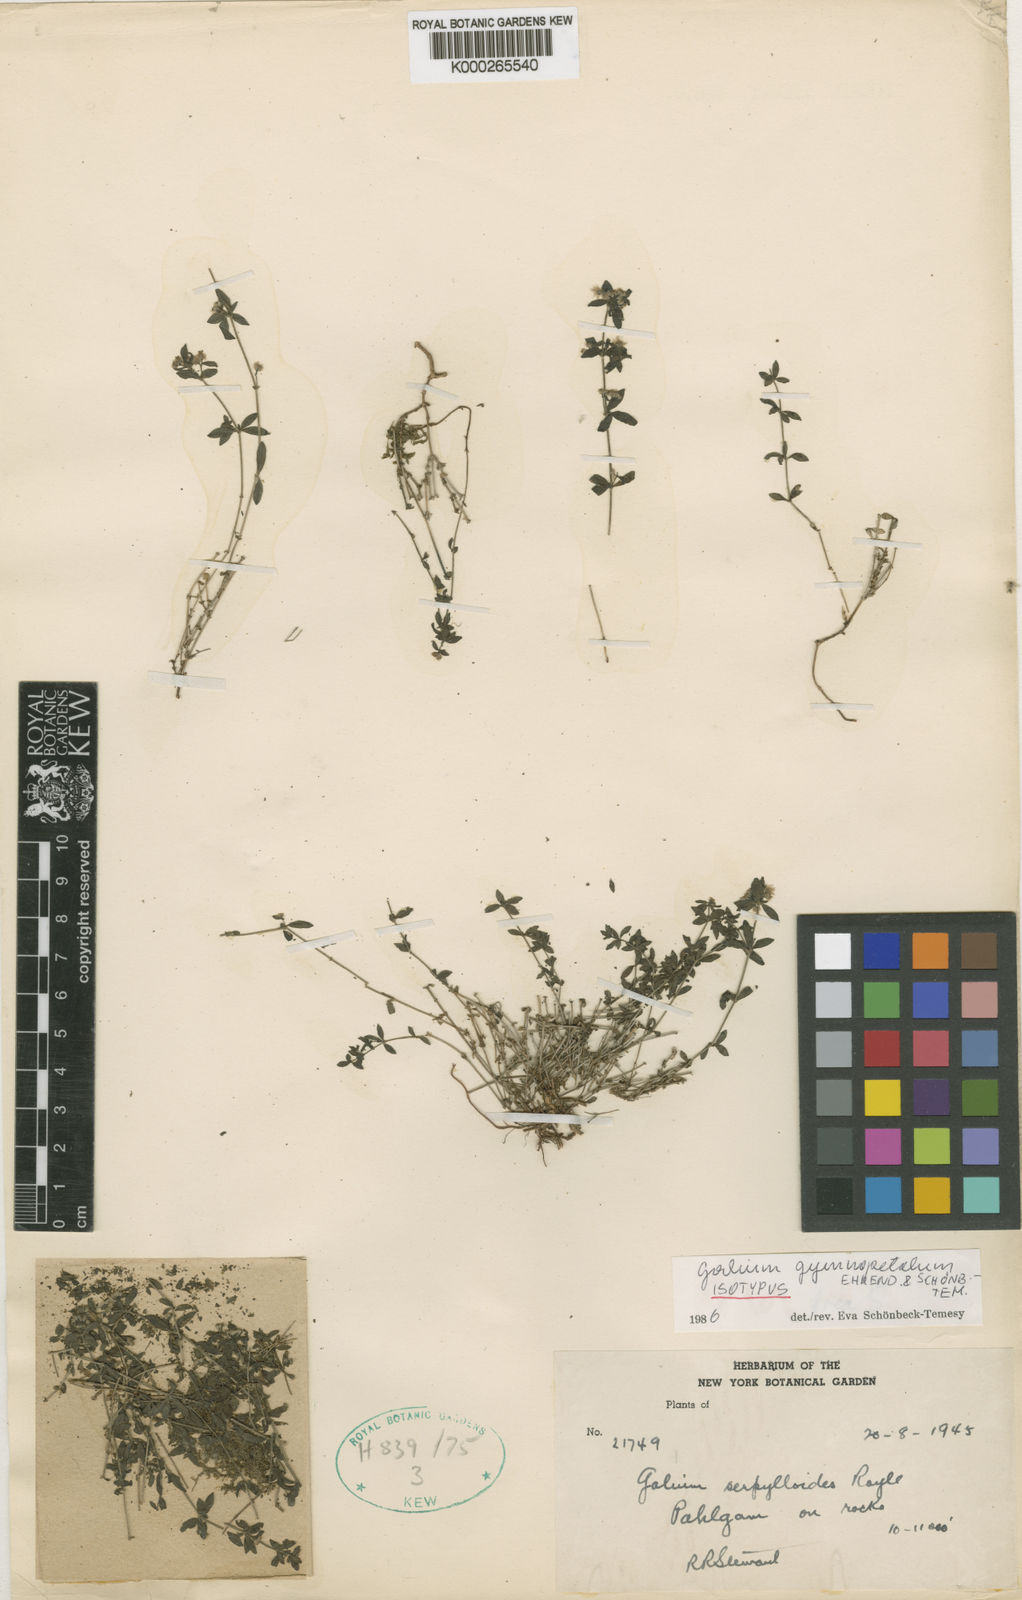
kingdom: Plantae
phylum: Tracheophyta
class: Magnoliopsida
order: Gentianales
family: Rubiaceae
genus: Galium
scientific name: Galium
